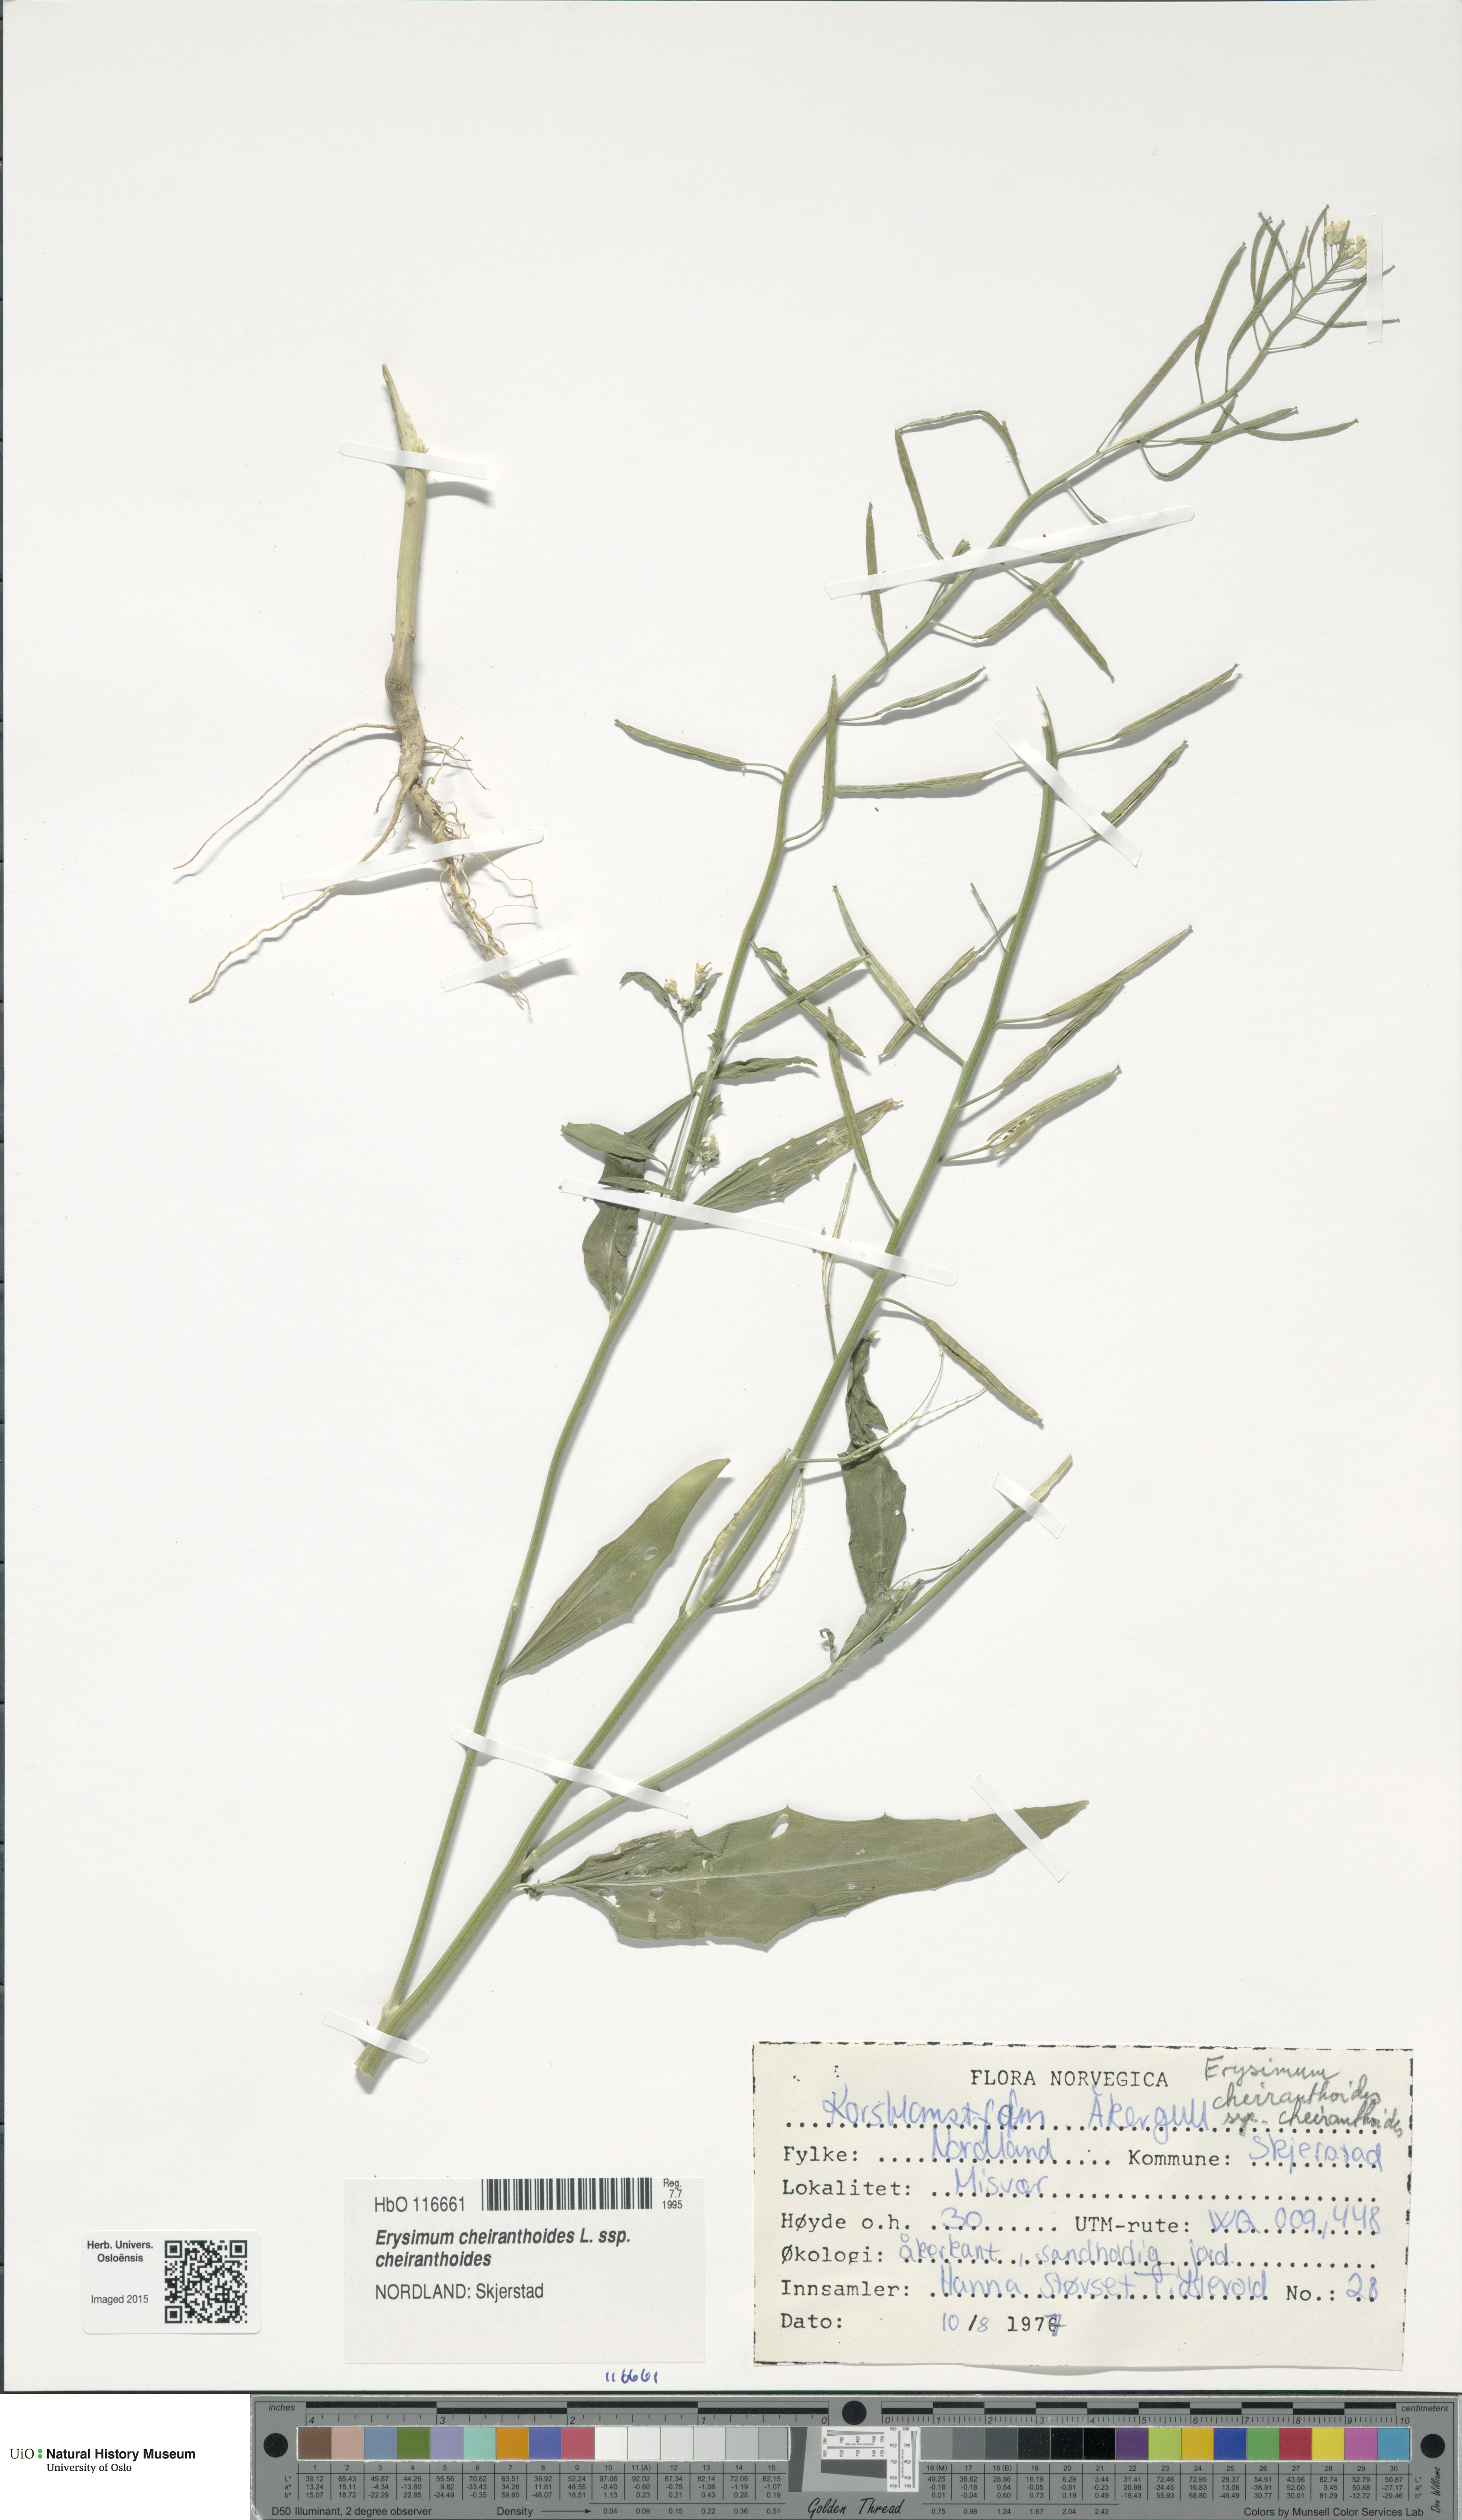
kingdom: Plantae
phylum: Tracheophyta
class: Magnoliopsida
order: Brassicales
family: Brassicaceae
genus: Erysimum
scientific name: Erysimum cheiranthoides
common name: Treacle mustard
